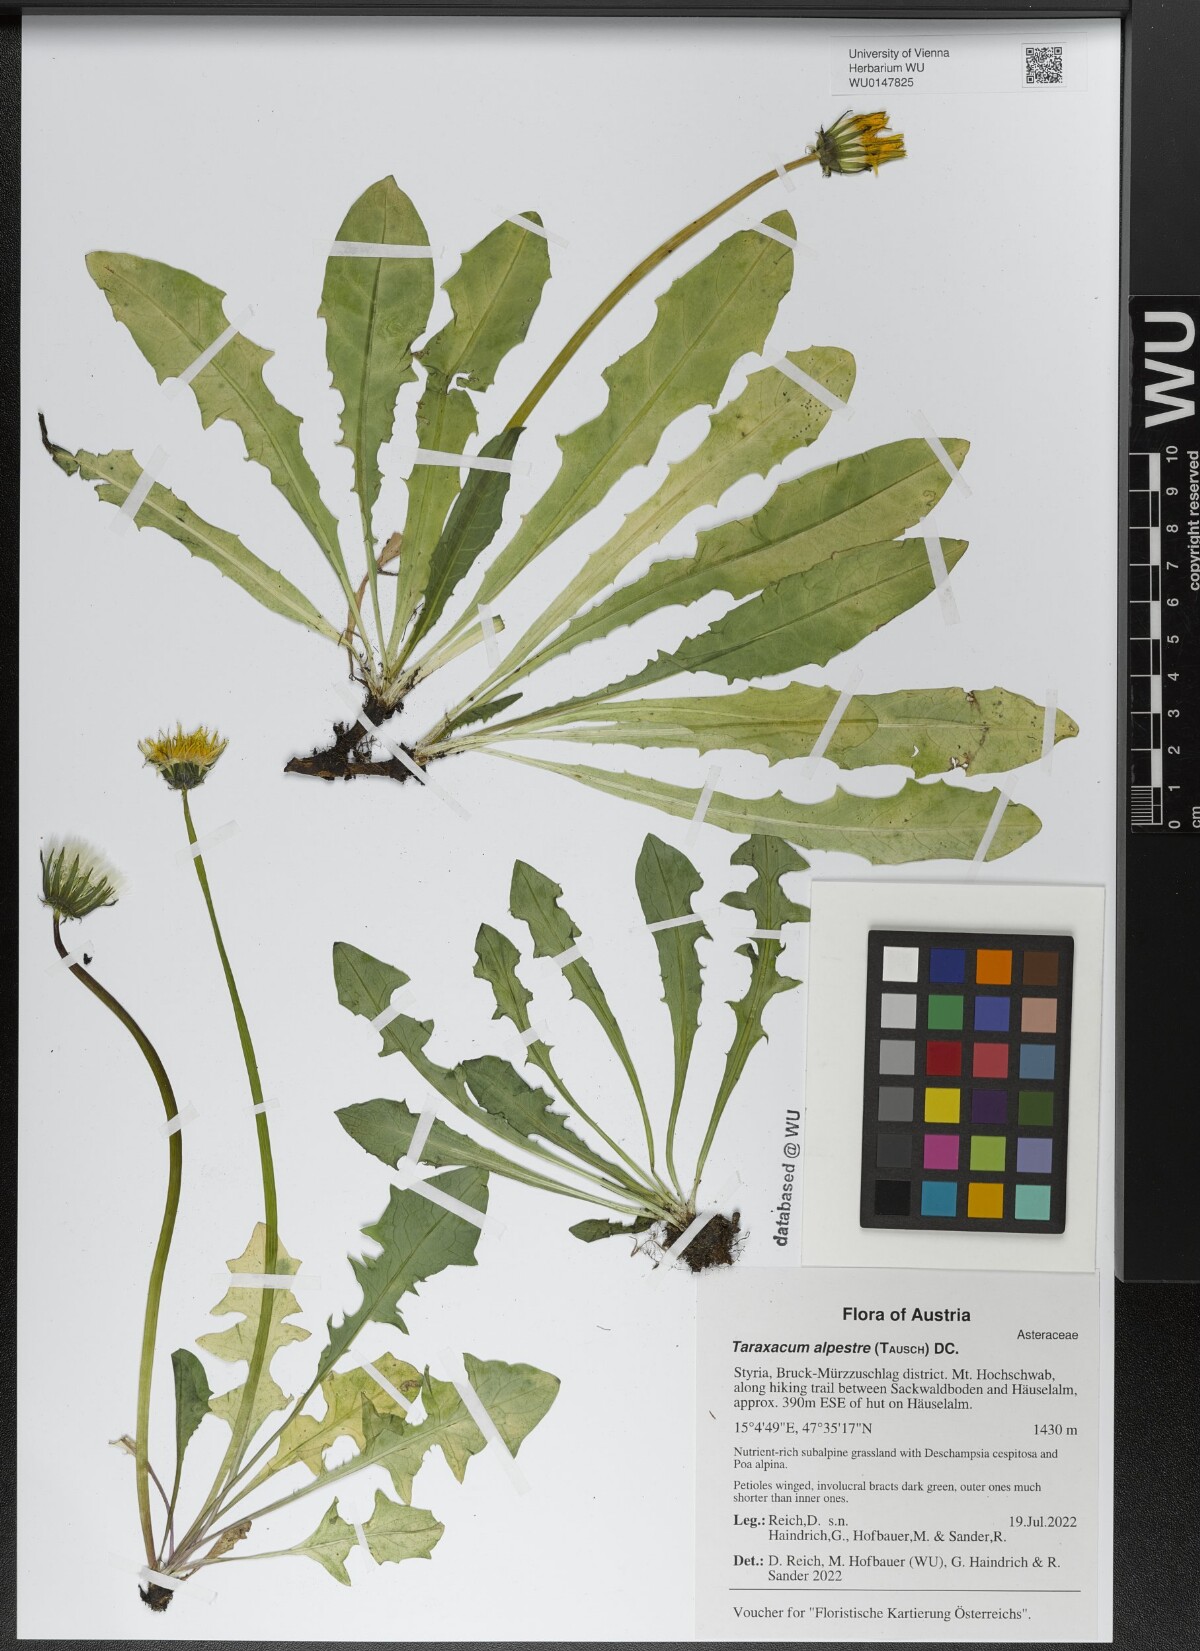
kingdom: Plantae
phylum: Tracheophyta
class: Magnoliopsida
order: Asterales
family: Asteraceae
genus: Taraxacum
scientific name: Taraxacum alpestre
